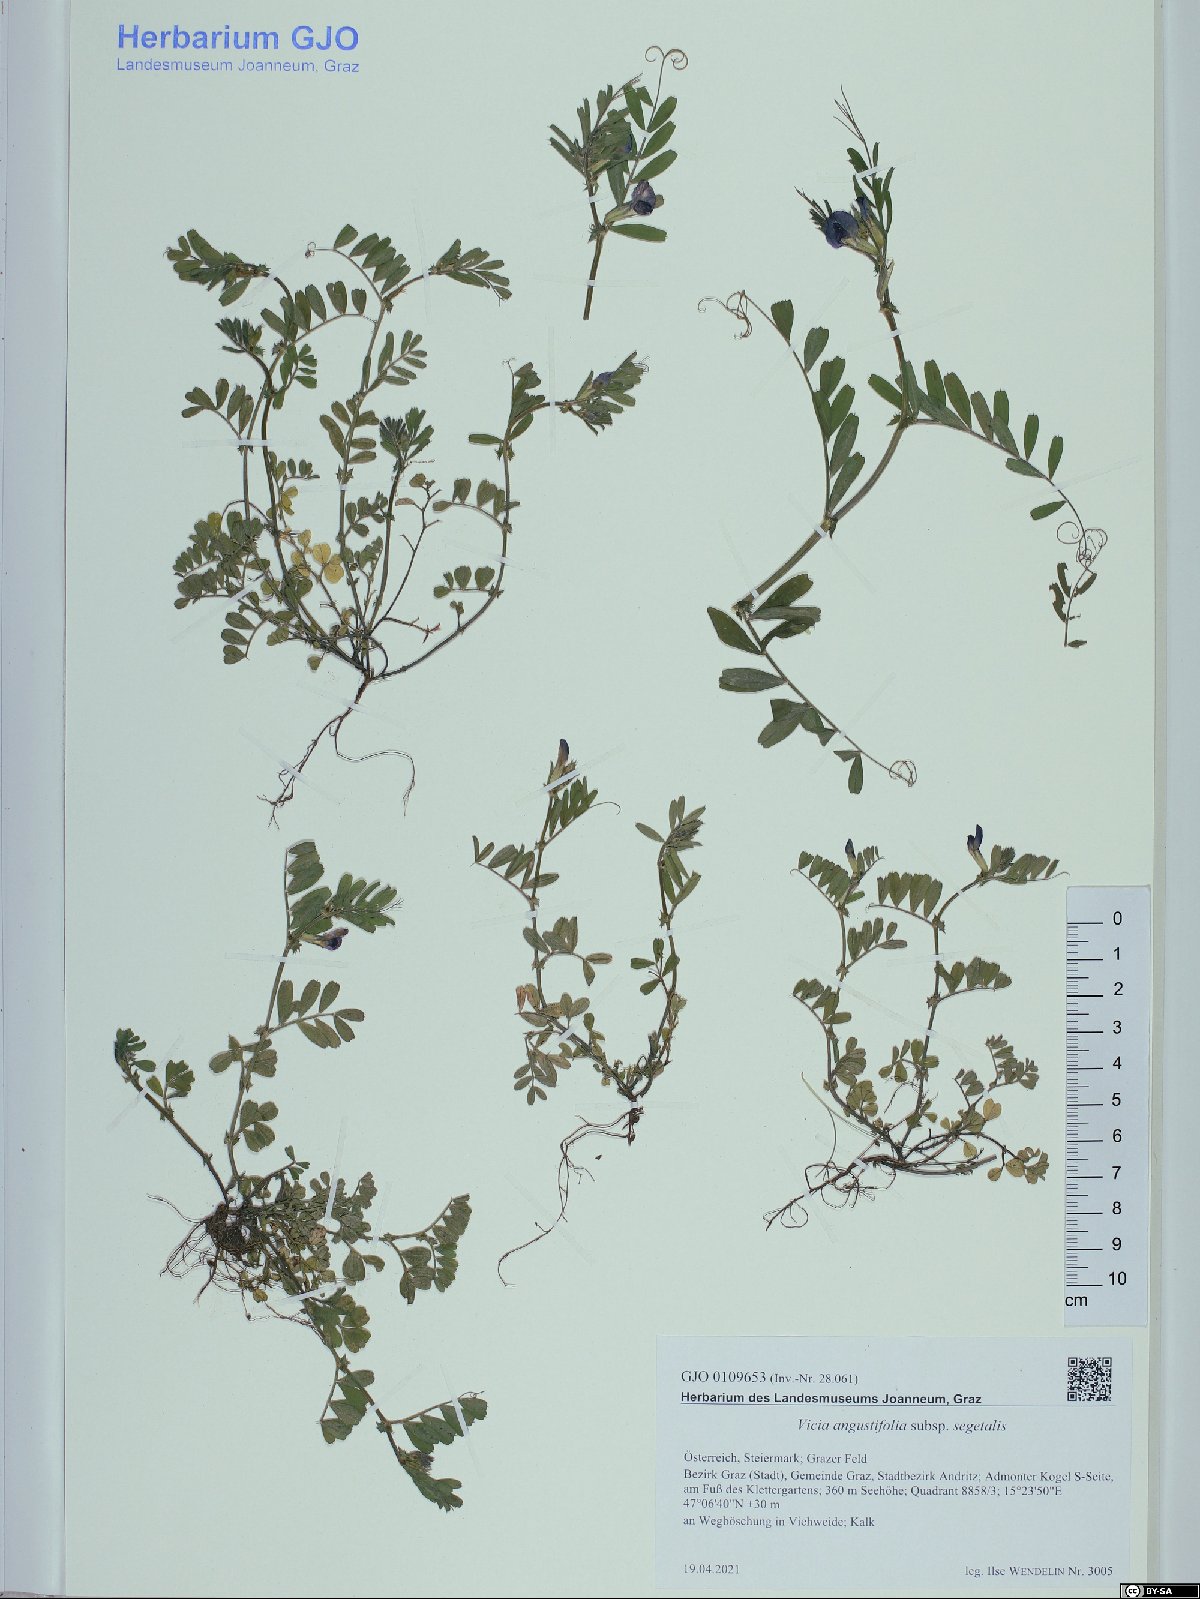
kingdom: Plantae
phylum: Tracheophyta
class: Magnoliopsida
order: Fabales
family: Fabaceae
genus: Vicia
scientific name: Vicia sativa
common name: Garden vetch
